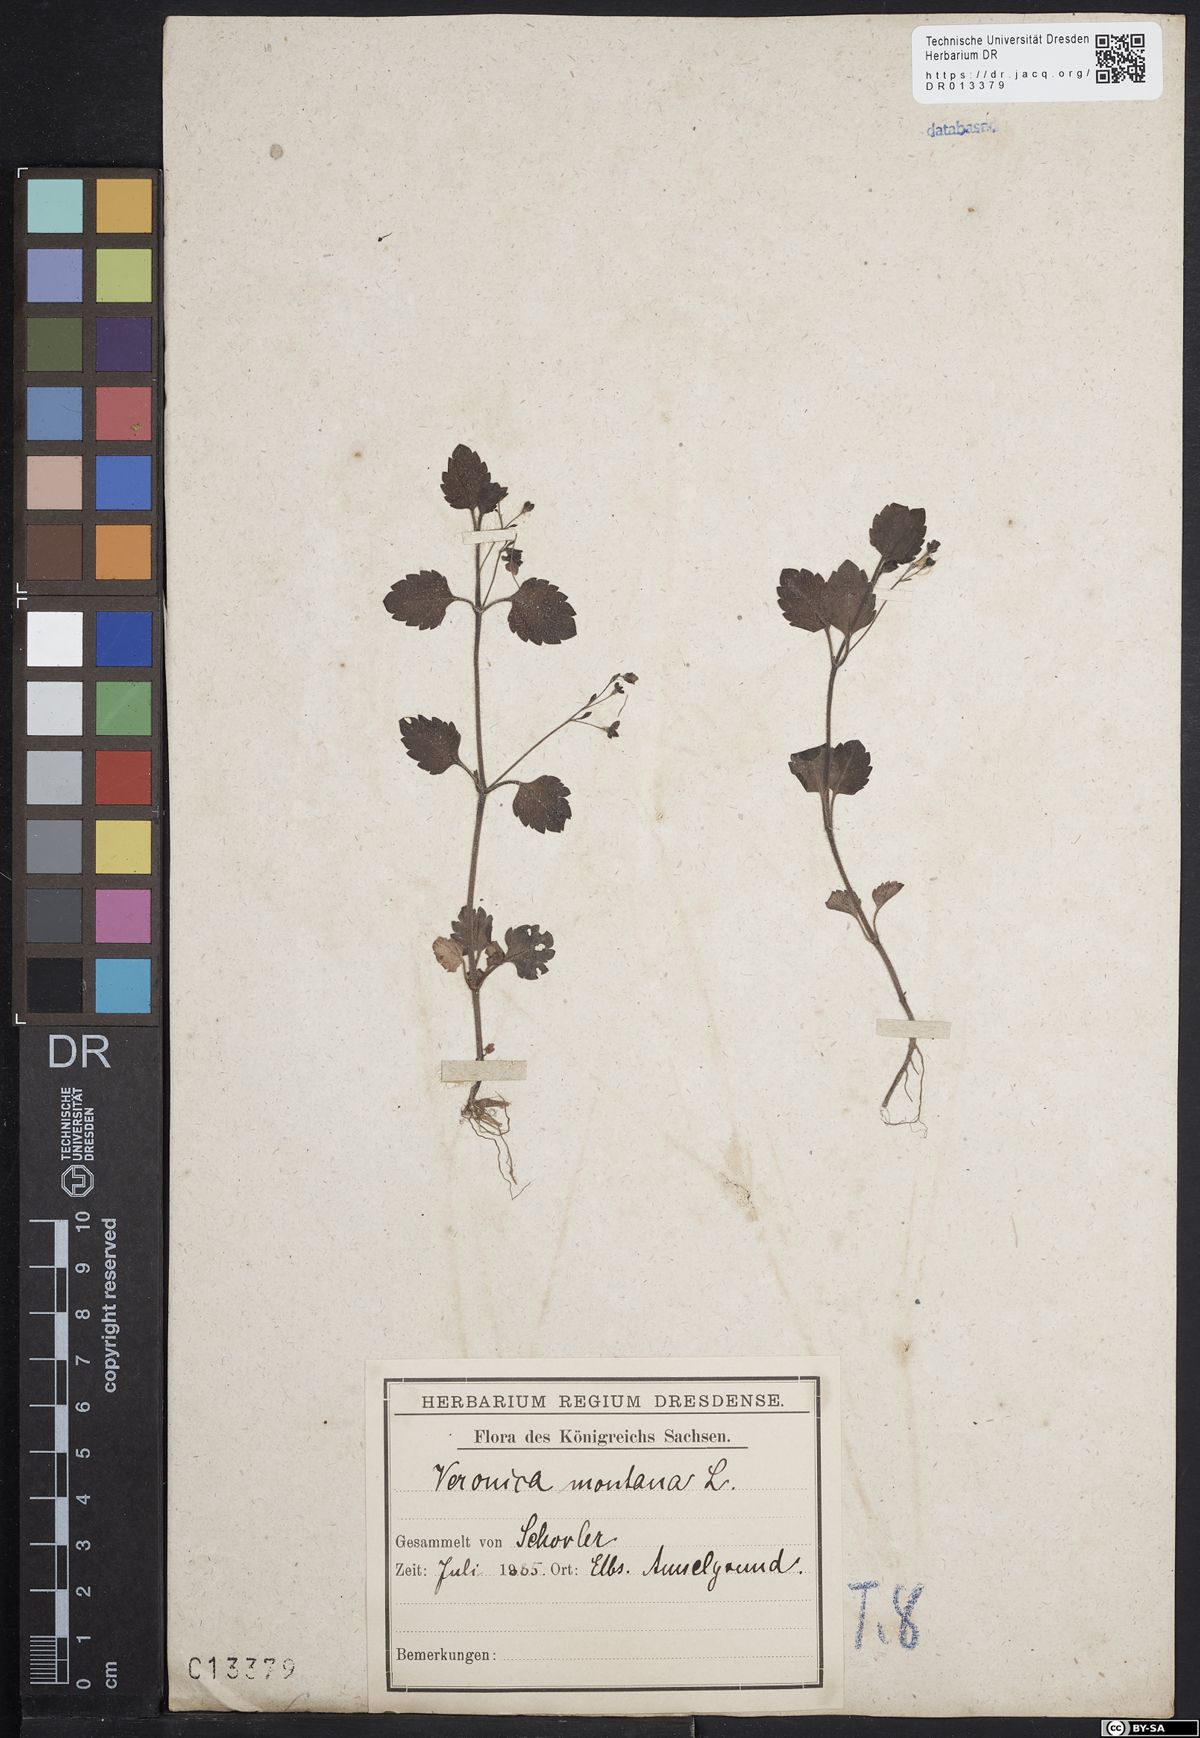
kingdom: Plantae
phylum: Tracheophyta
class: Magnoliopsida
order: Lamiales
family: Plantaginaceae
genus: Veronica
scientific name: Veronica montana
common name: Wood speedwell
